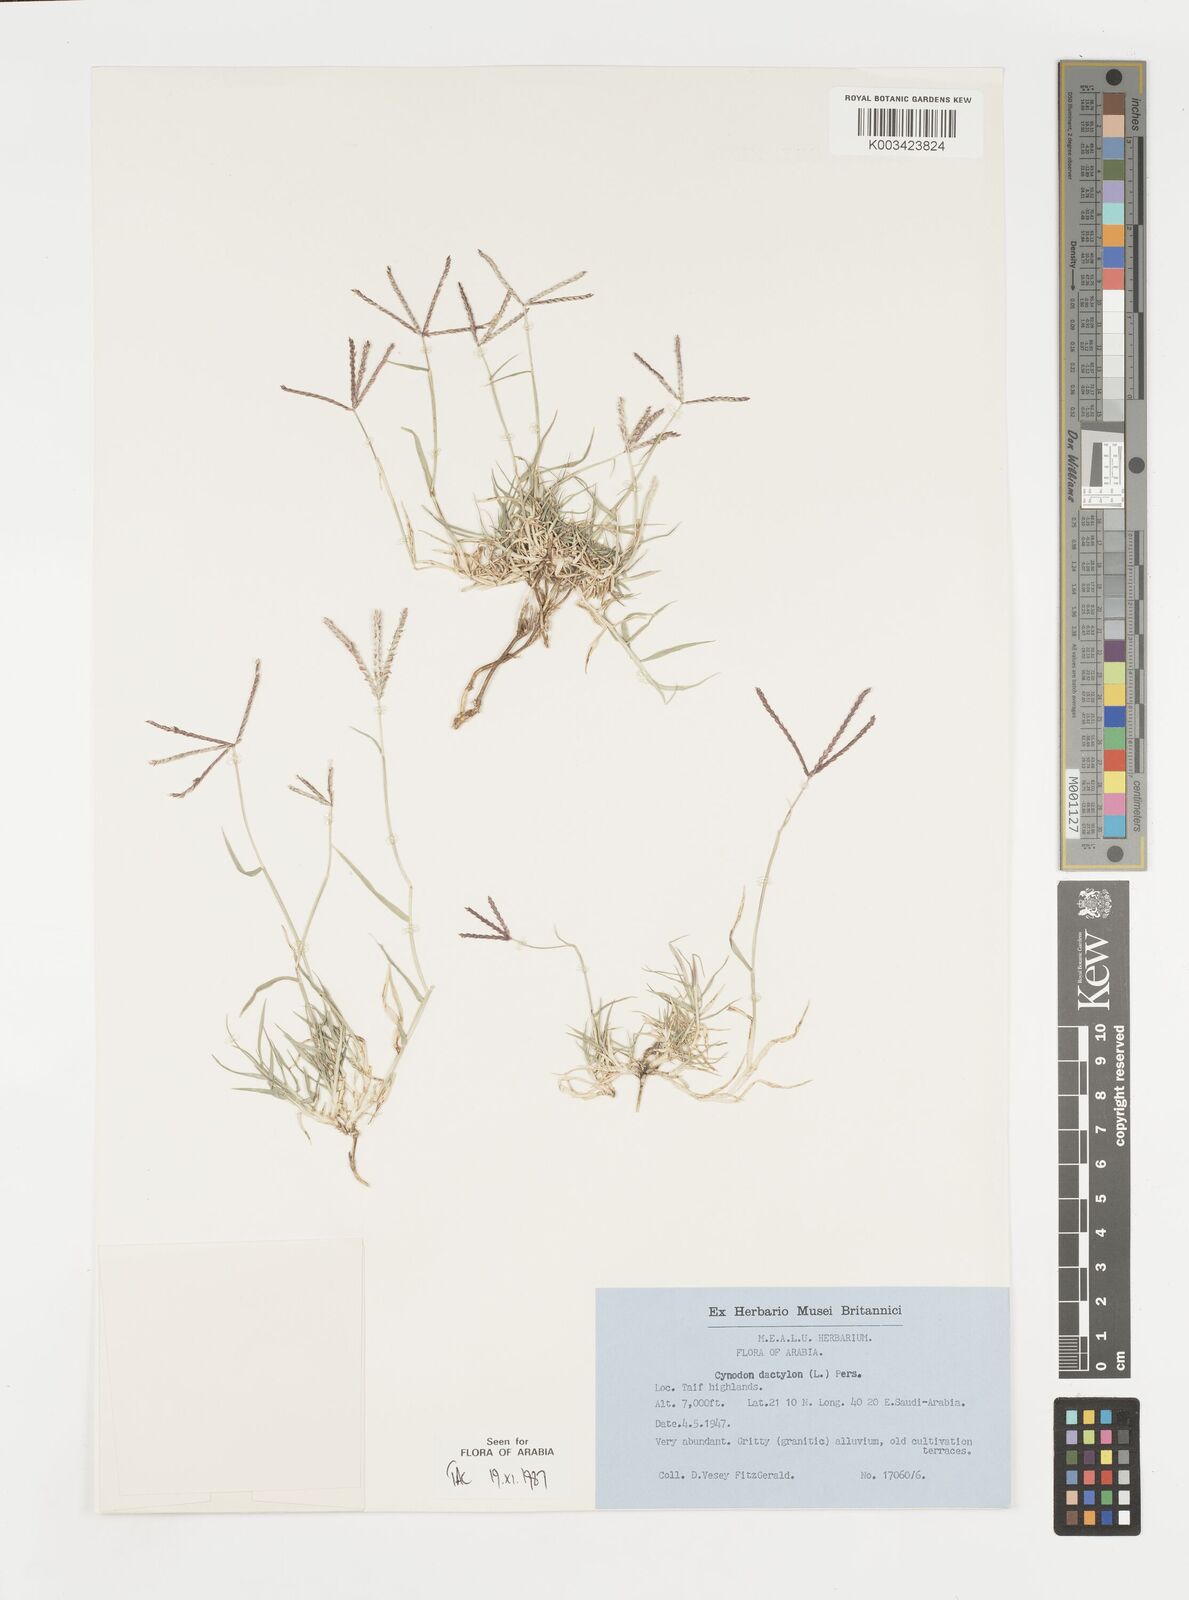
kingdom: Plantae
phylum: Tracheophyta
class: Liliopsida
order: Poales
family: Poaceae
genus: Cynodon
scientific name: Cynodon dactylon
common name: Bermuda grass
